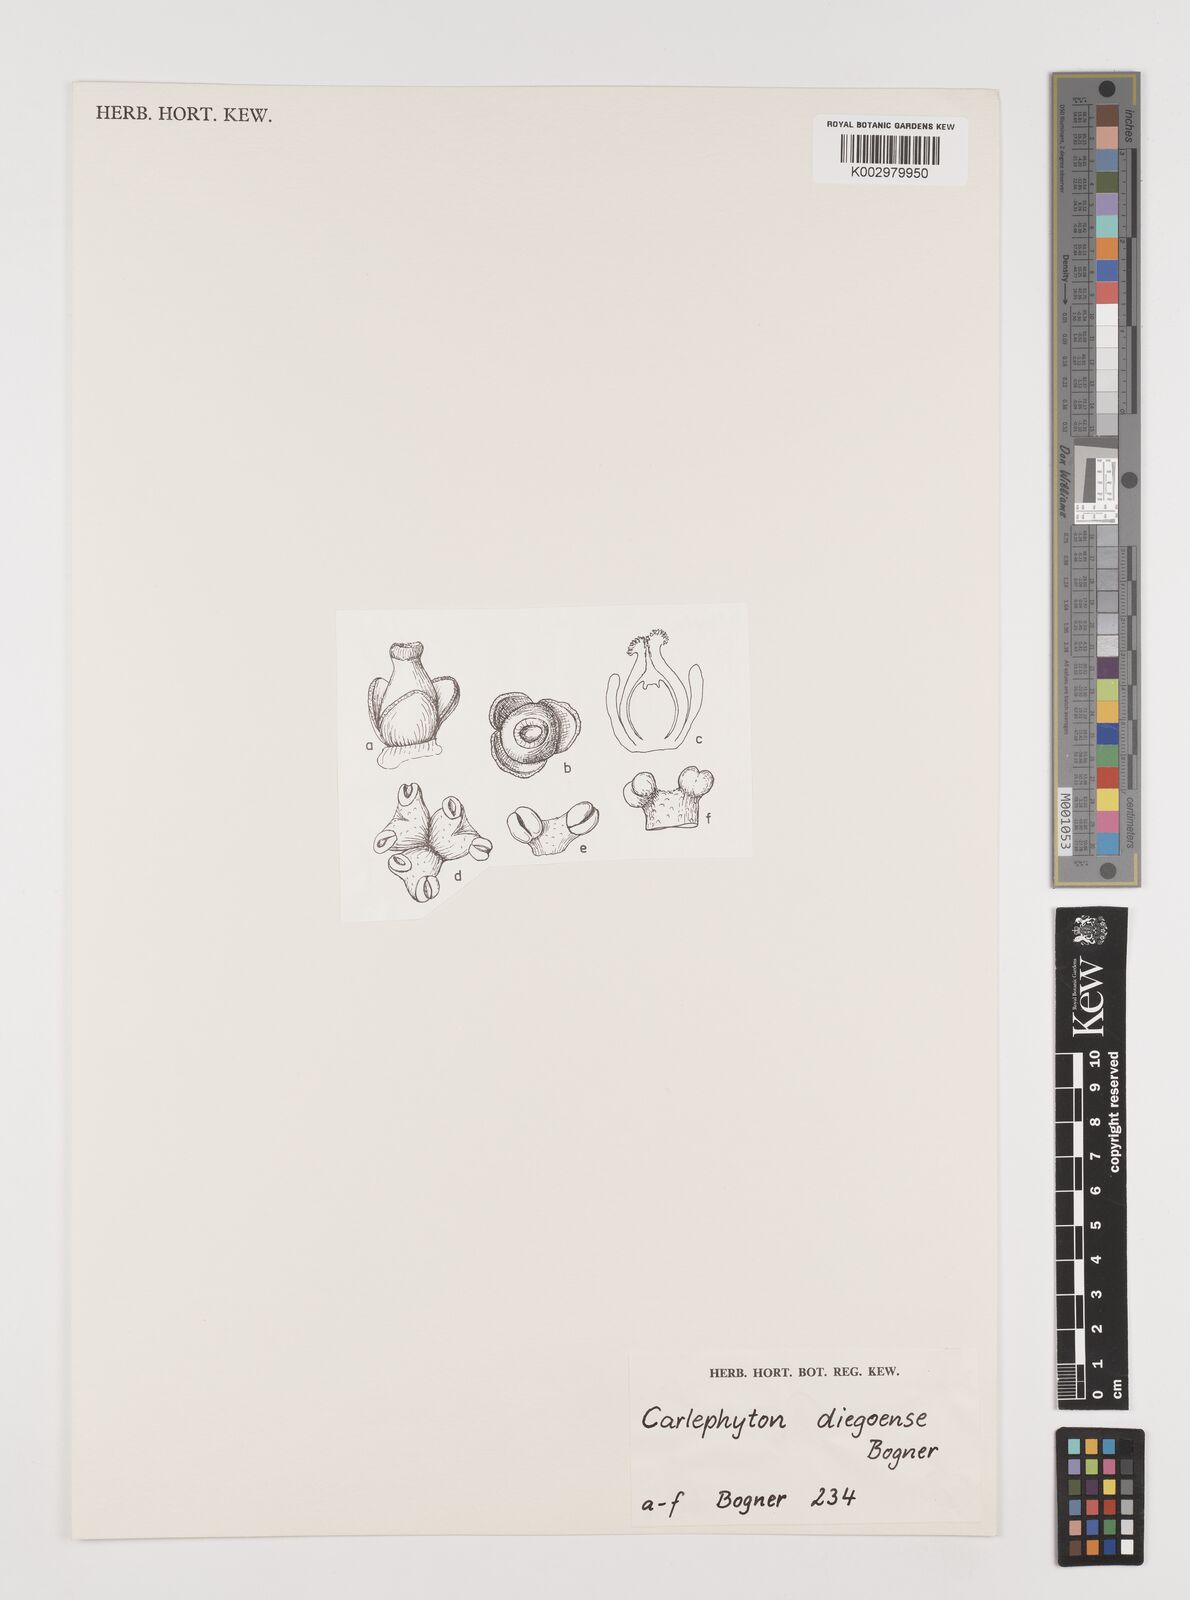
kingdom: Plantae
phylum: Tracheophyta
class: Liliopsida
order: Alismatales
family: Araceae
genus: Carlephyton
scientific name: Carlephyton diegoense
